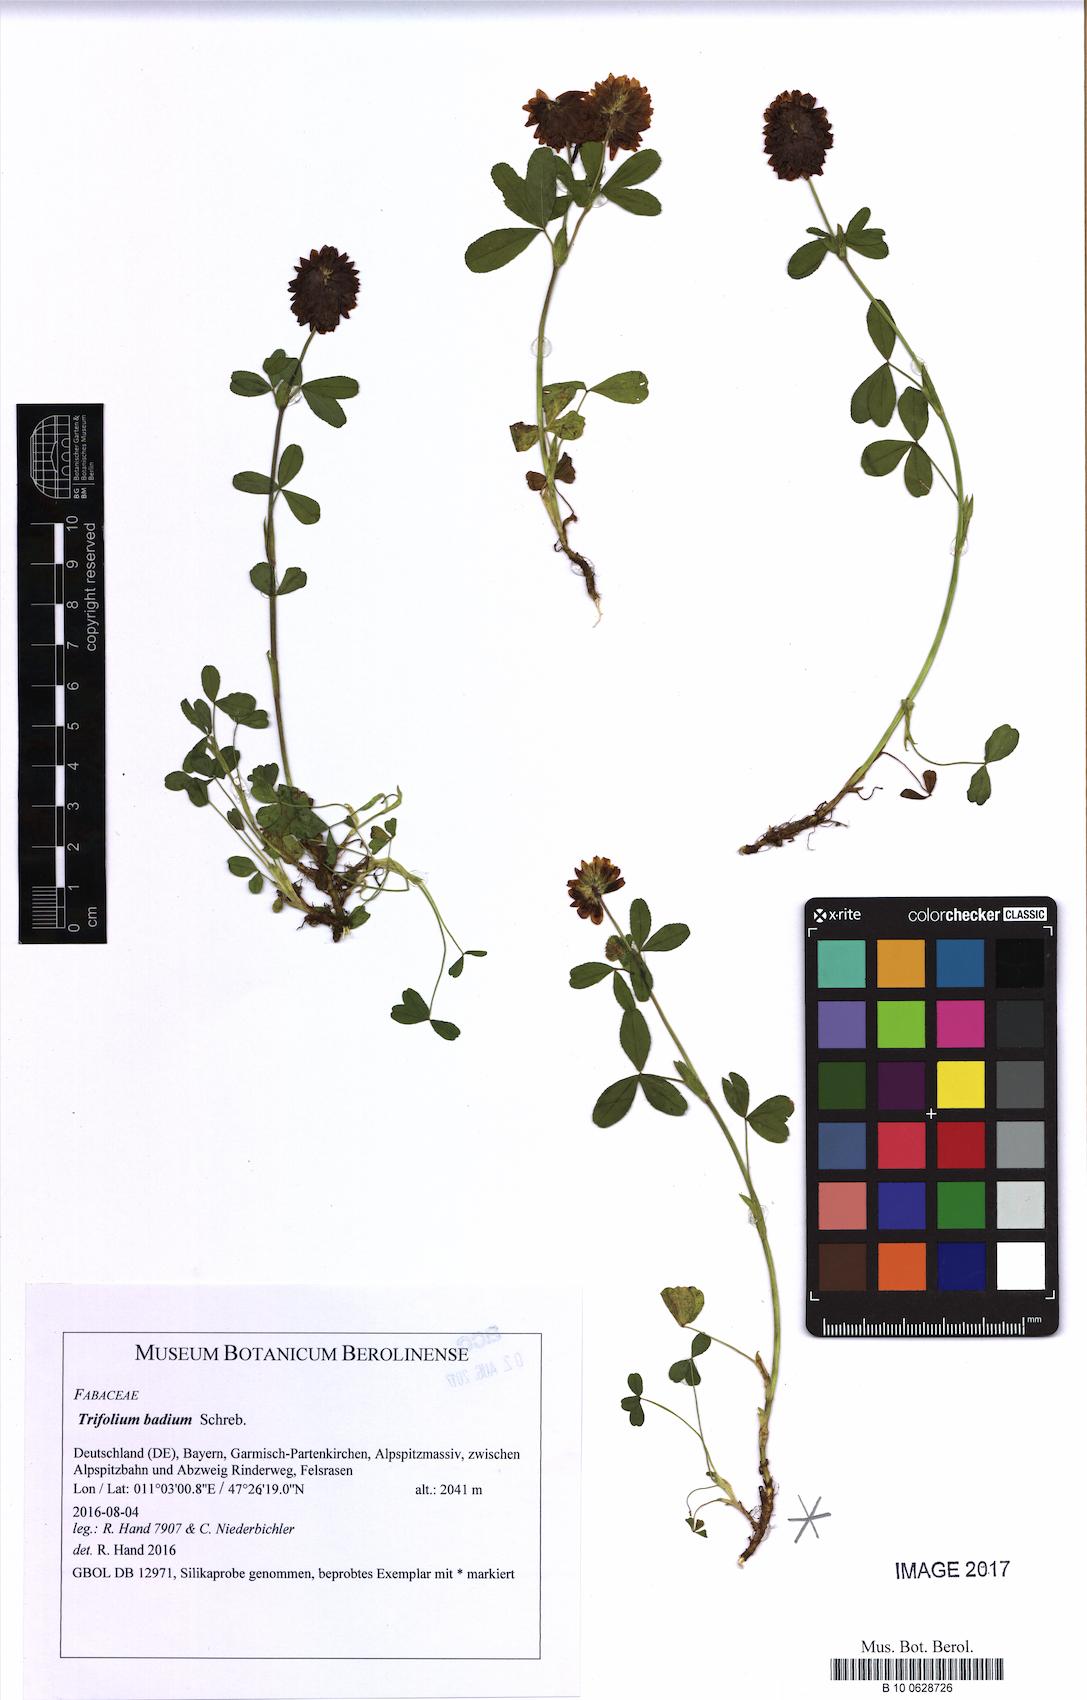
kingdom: Plantae
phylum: Tracheophyta
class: Magnoliopsida
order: Fabales
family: Fabaceae
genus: Trifolium
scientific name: Trifolium badium
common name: Brown clover
